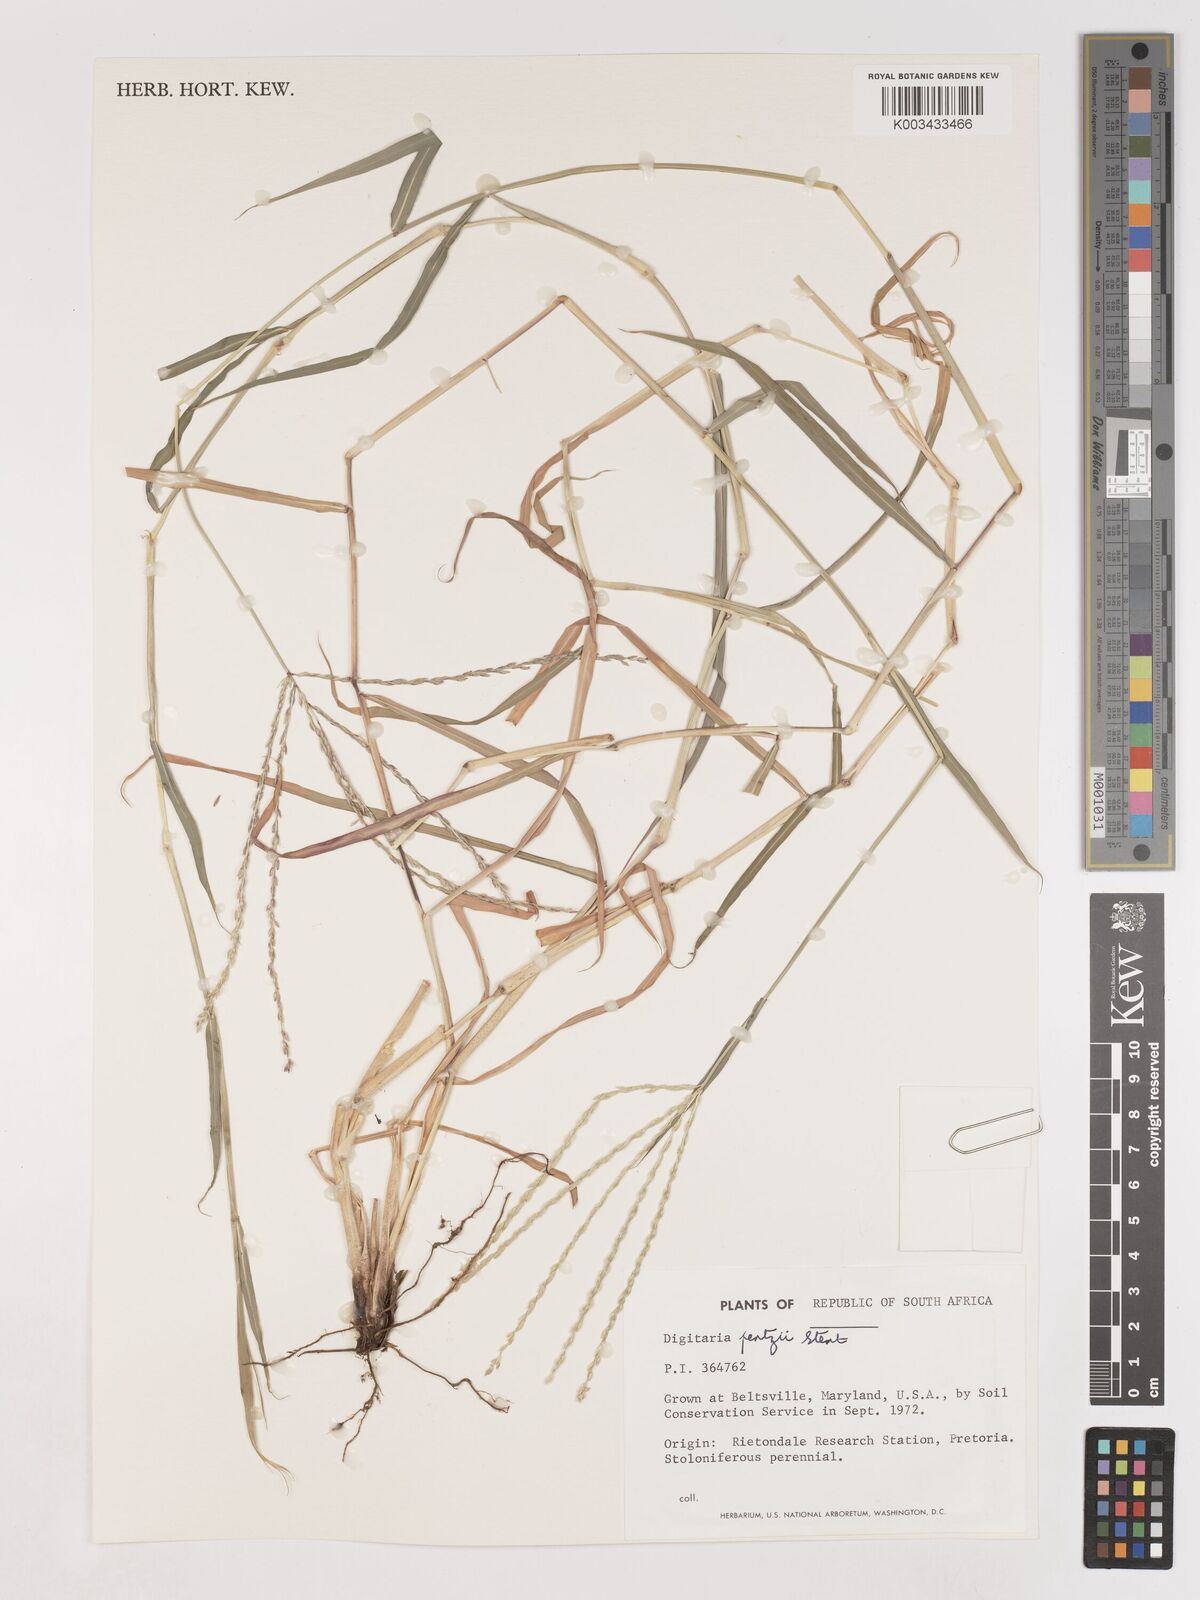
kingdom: Plantae
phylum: Tracheophyta
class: Liliopsida
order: Poales
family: Poaceae
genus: Digitaria
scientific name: Digitaria eriantha
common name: Digitgrass
